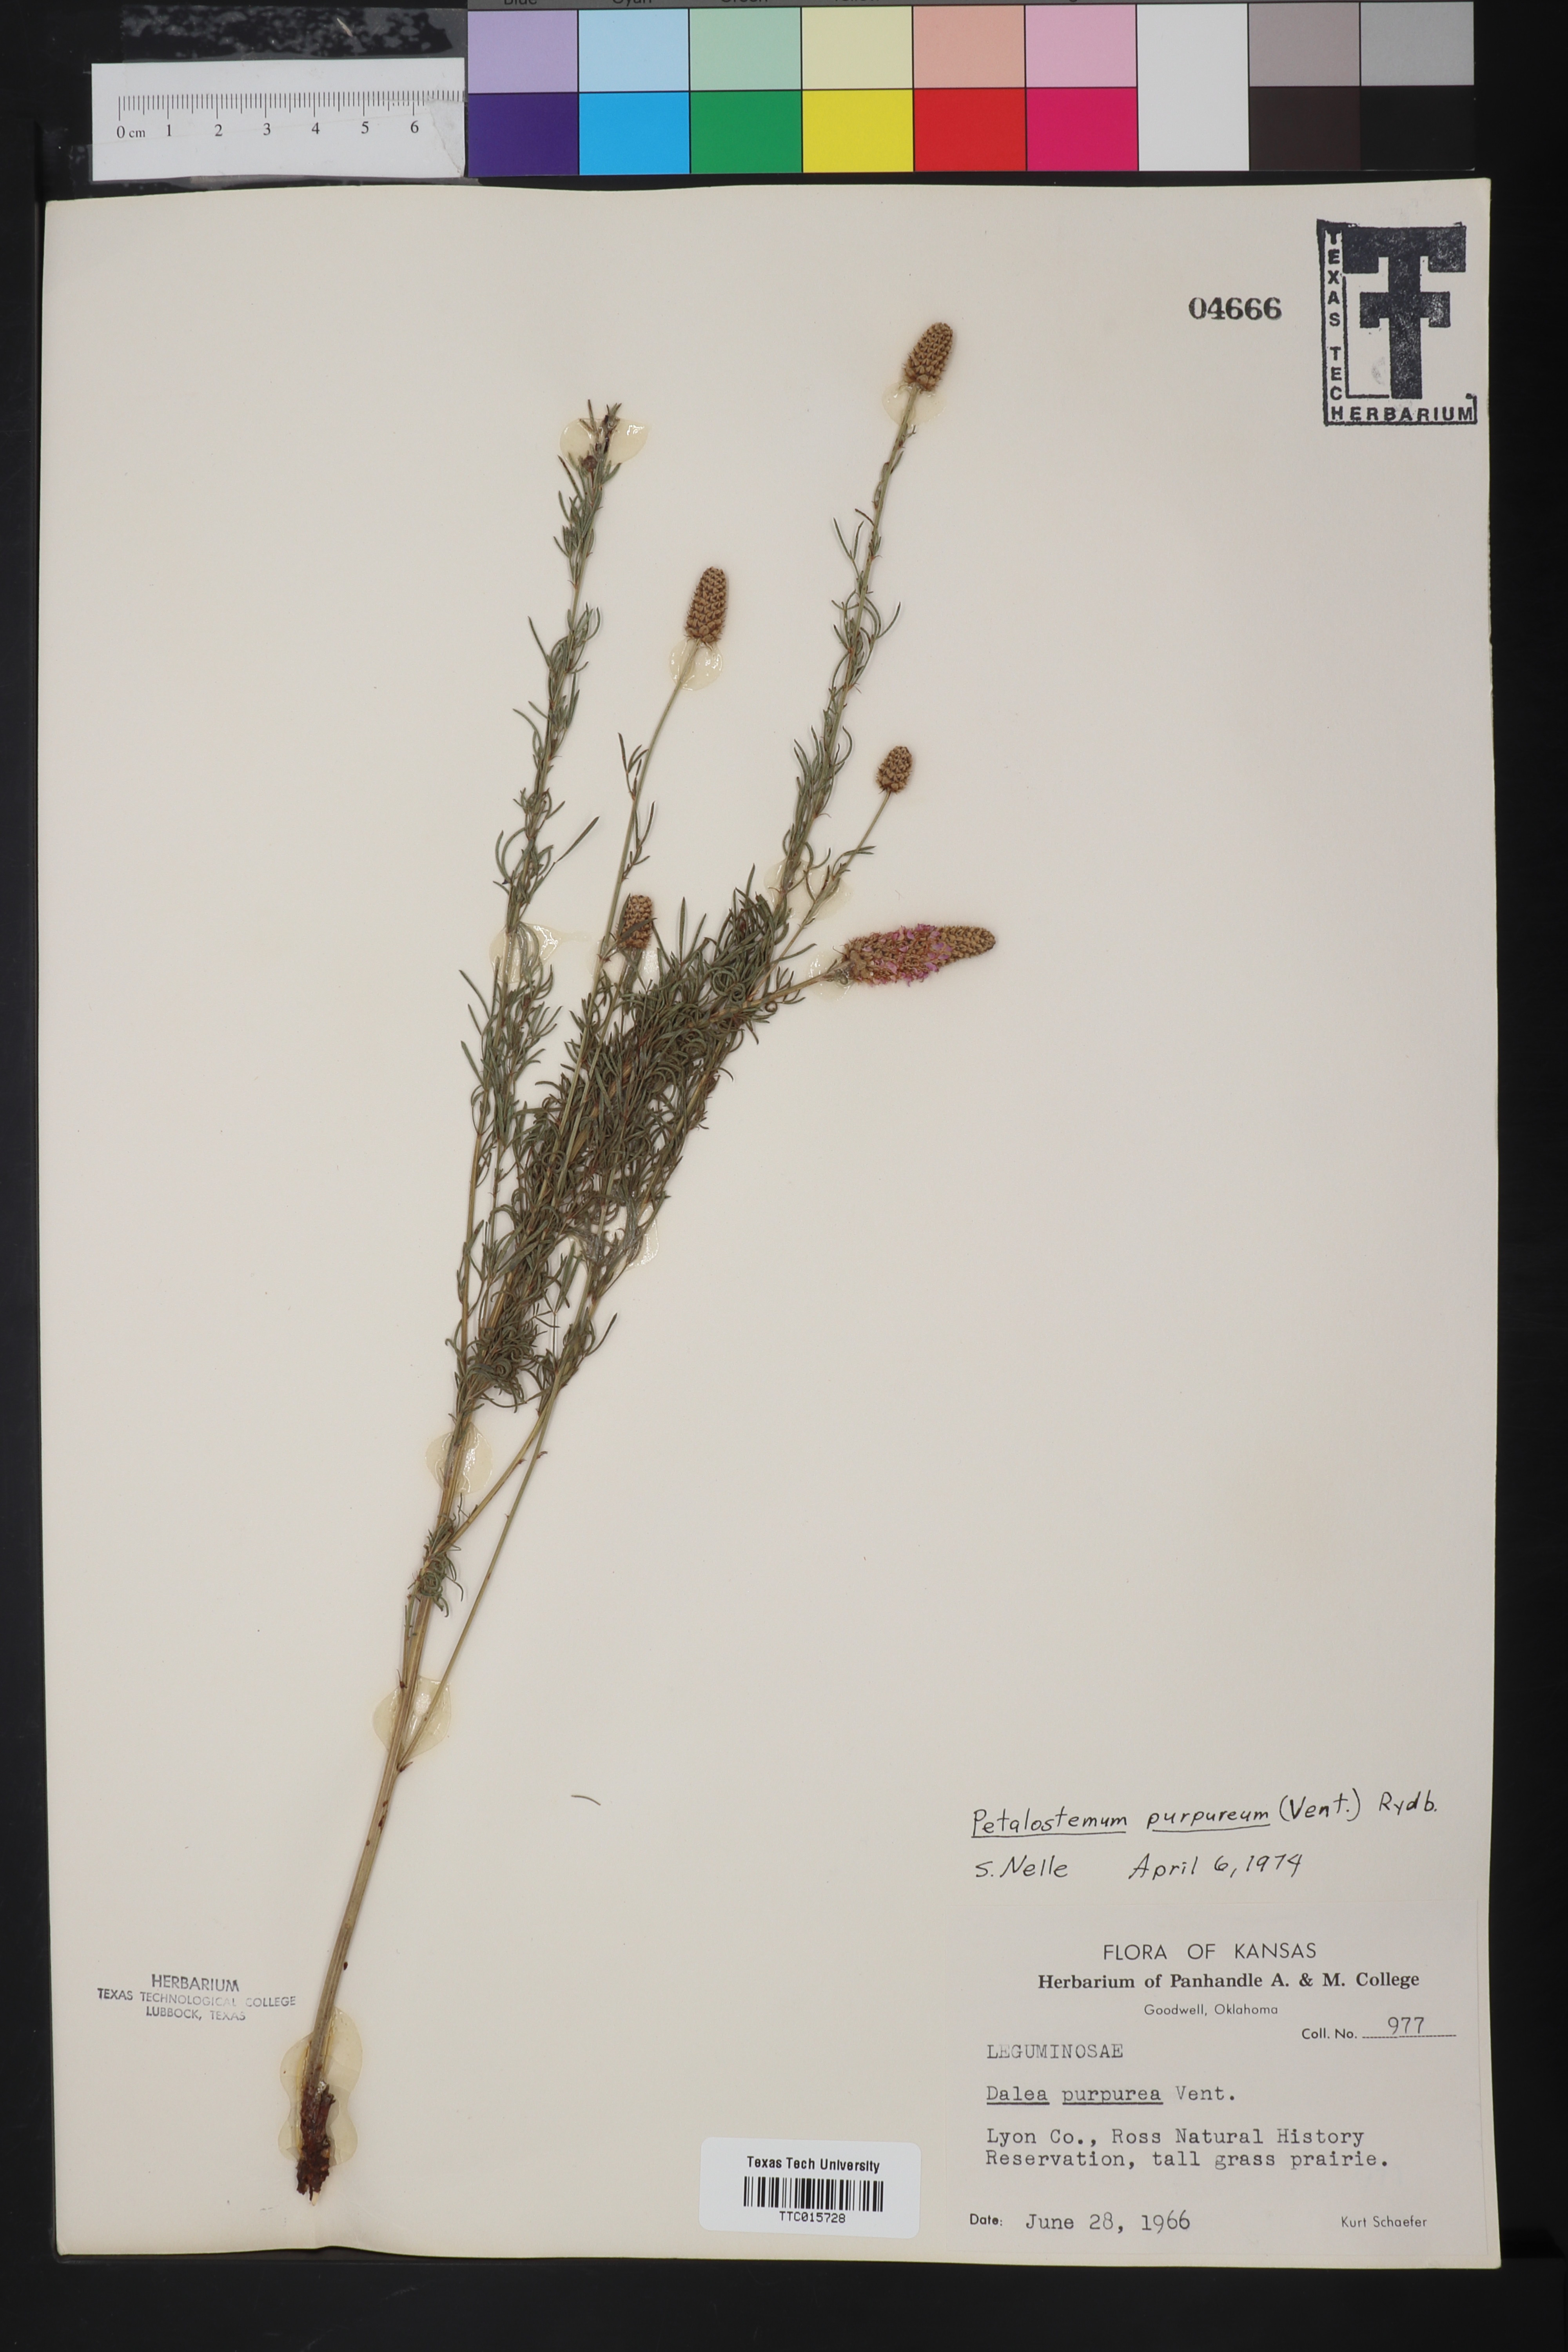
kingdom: Plantae
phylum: Tracheophyta
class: Magnoliopsida
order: Fabales
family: Fabaceae
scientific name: Fabaceae
